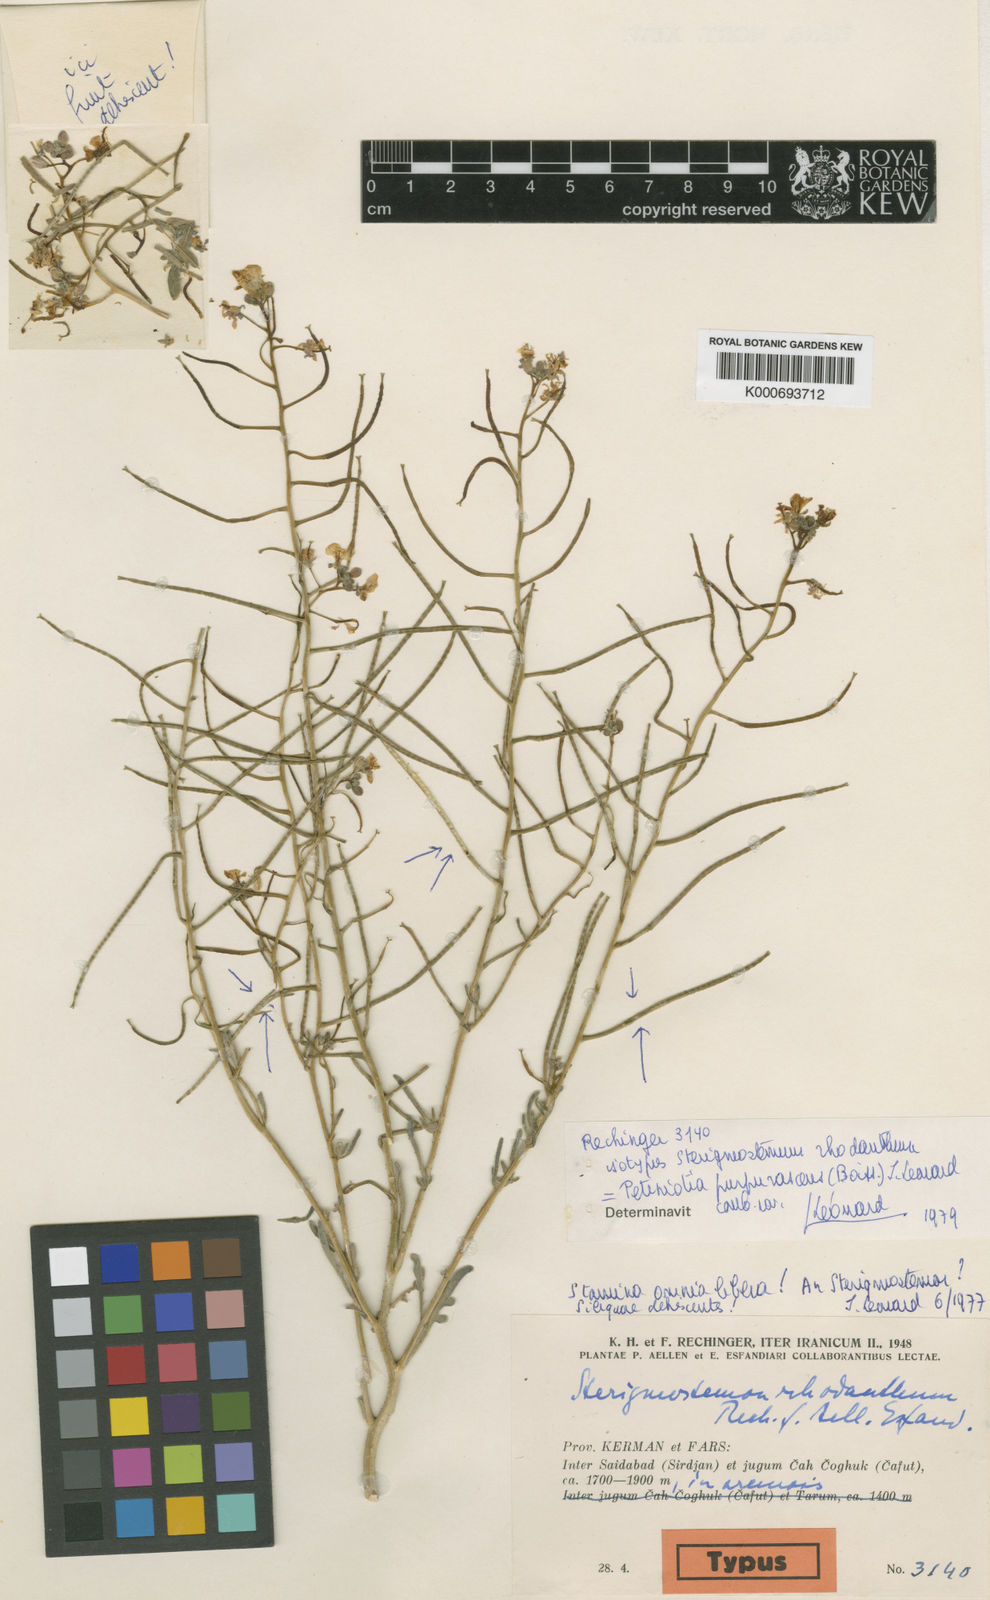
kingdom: Plantae
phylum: Tracheophyta
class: Magnoliopsida
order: Brassicales
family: Brassicaceae
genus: Petiniotia
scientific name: Petiniotia
